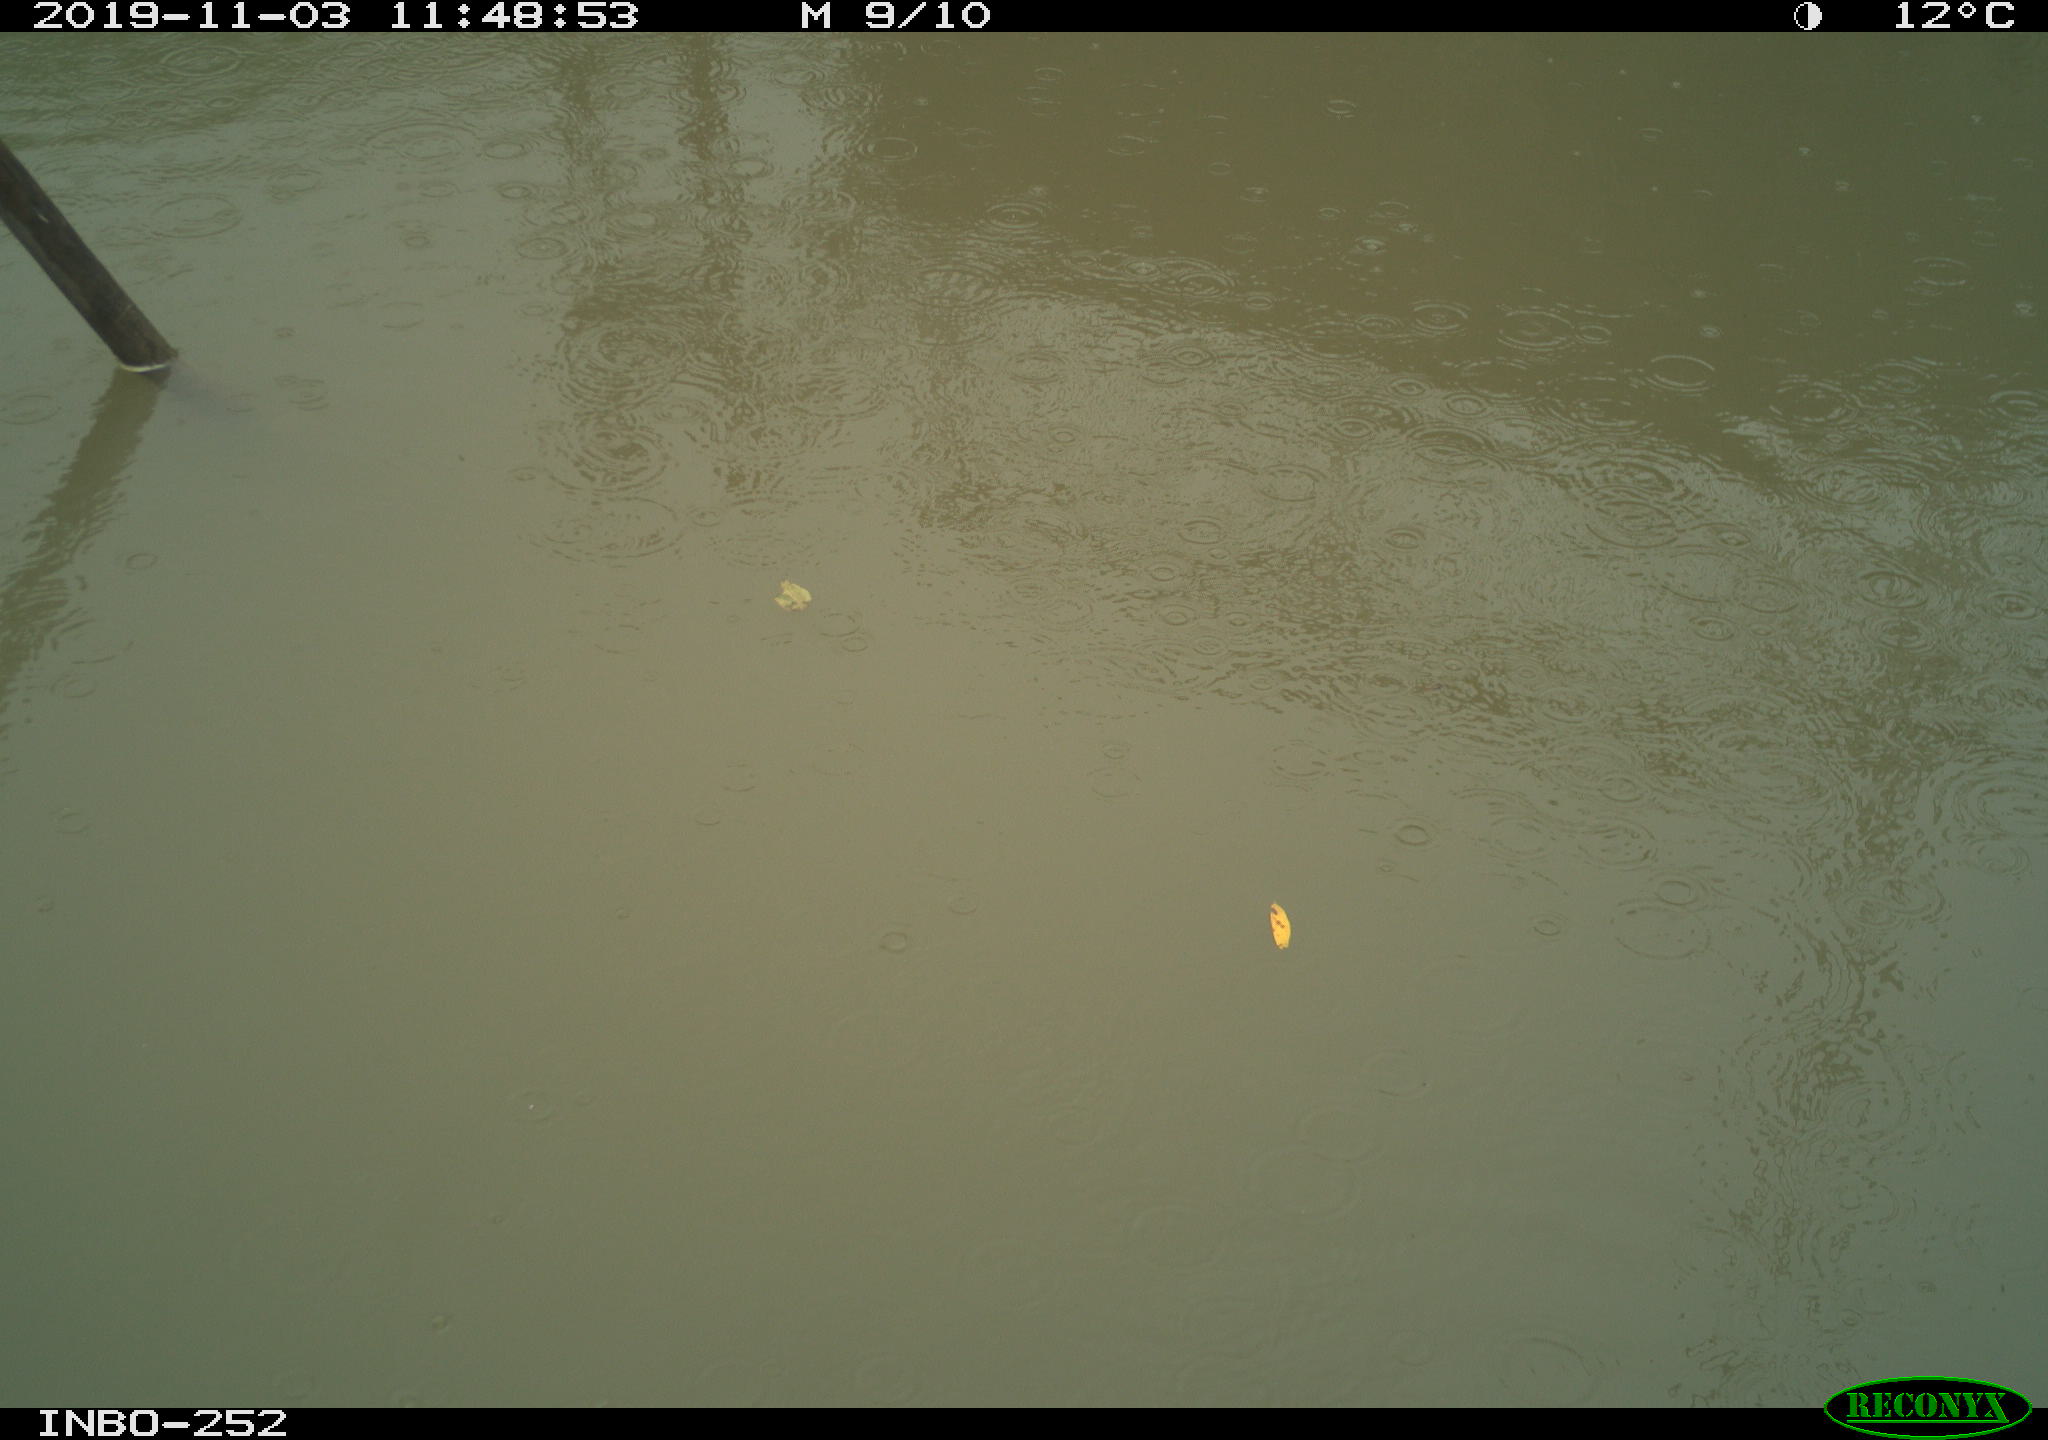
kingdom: Animalia
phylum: Chordata
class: Aves
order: Gruiformes
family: Rallidae
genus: Gallinula
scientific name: Gallinula chloropus
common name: Common moorhen
